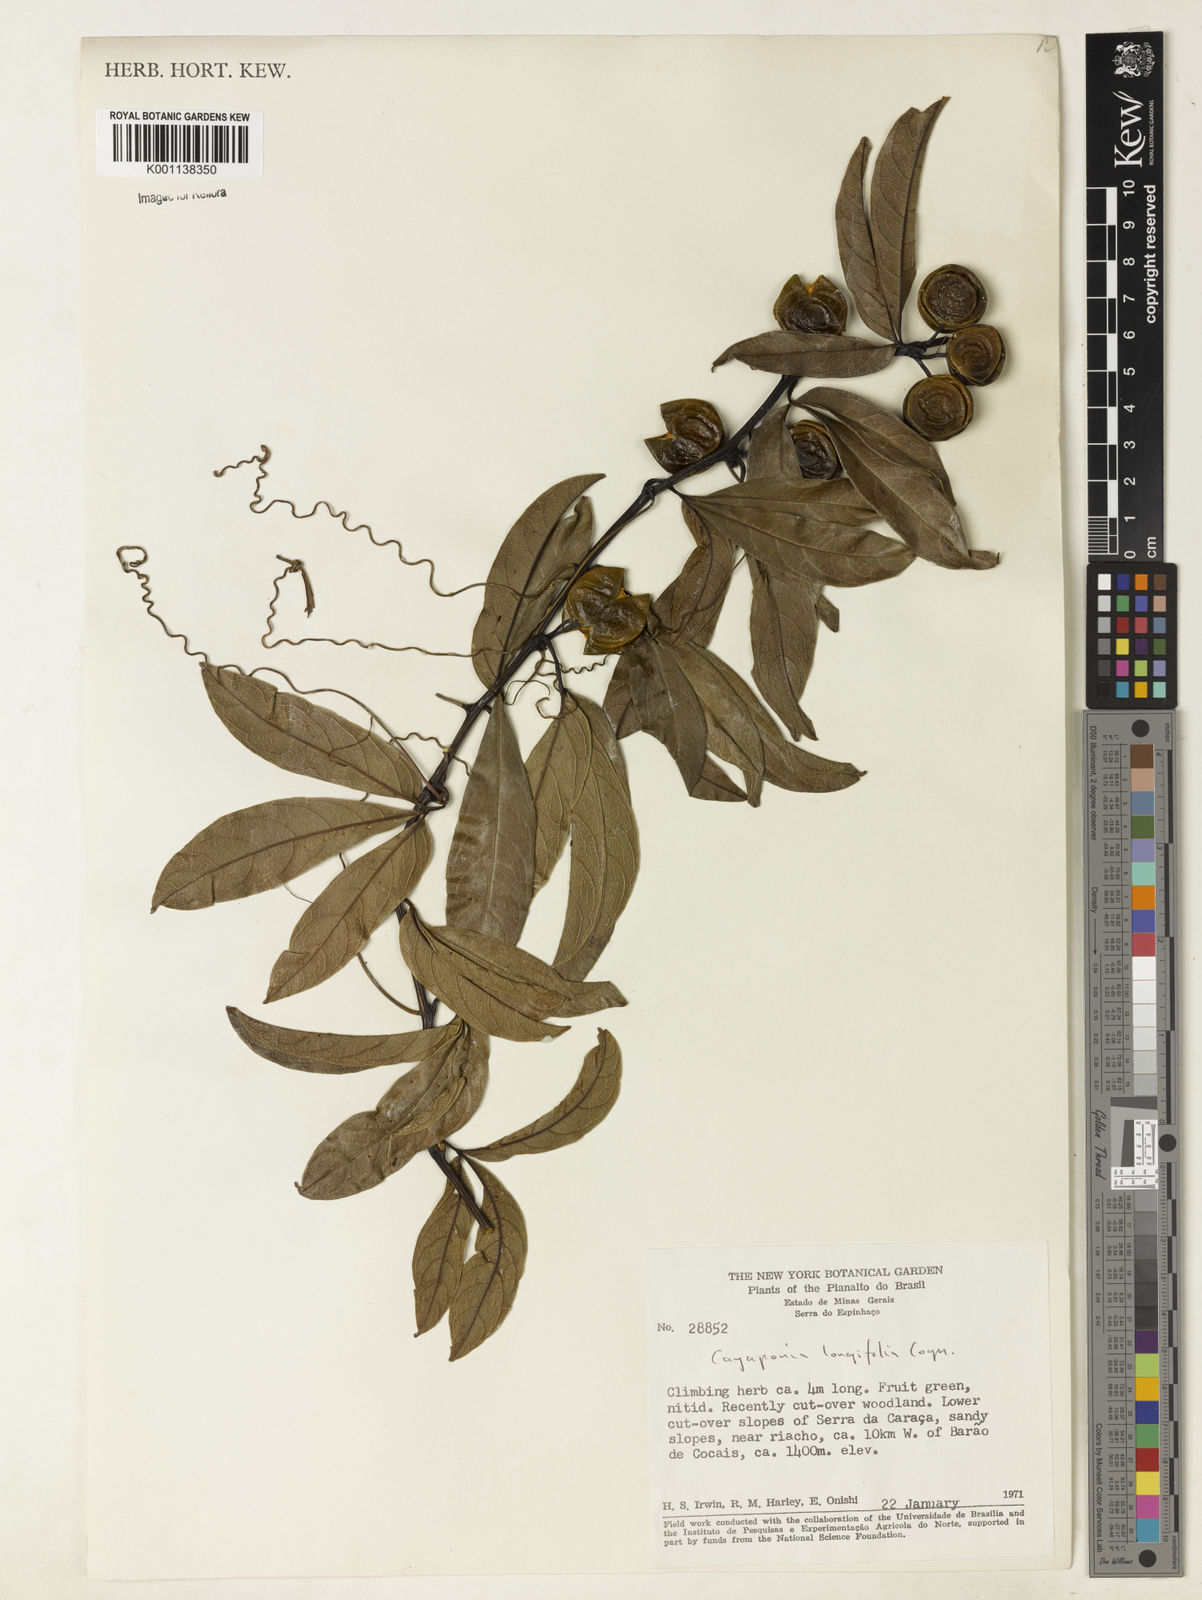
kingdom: Plantae
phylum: Tracheophyta
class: Magnoliopsida
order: Cucurbitales
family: Cucurbitaceae
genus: Cayaponia
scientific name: Cayaponia longifolia
